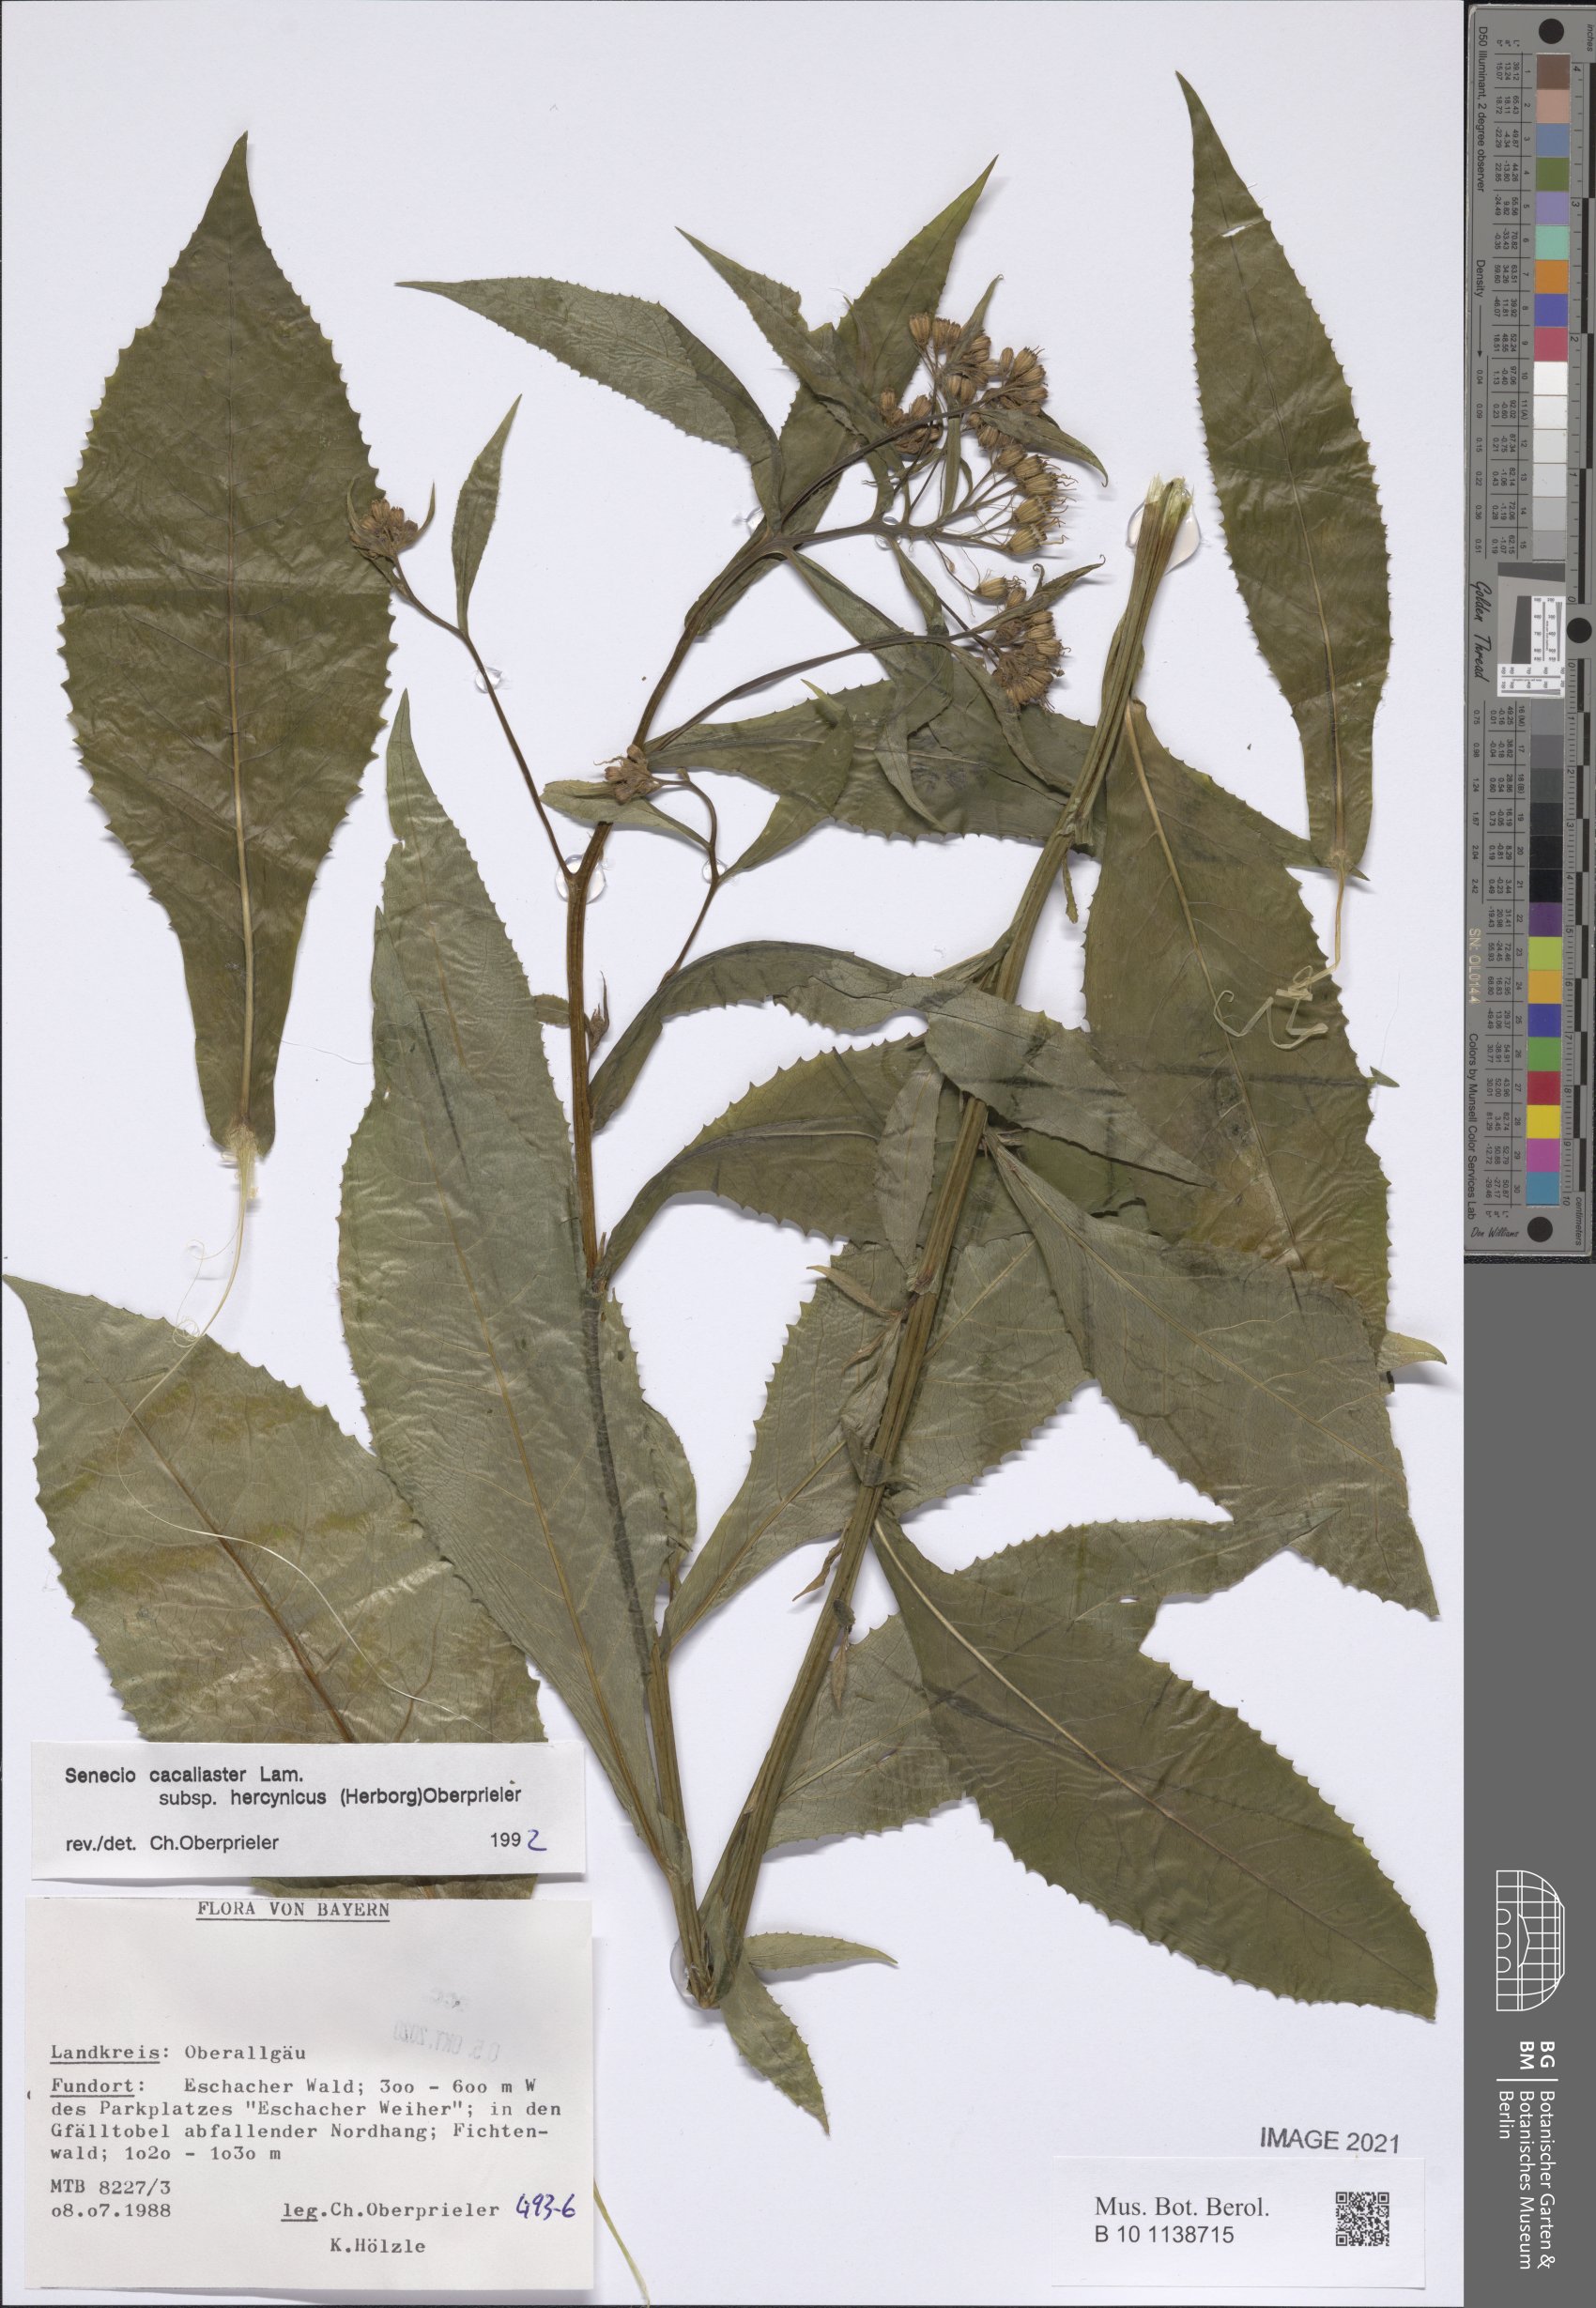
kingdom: Plantae
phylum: Tracheophyta
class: Magnoliopsida
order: Asterales
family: Asteraceae
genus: Senecio
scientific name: Senecio hercynicus
